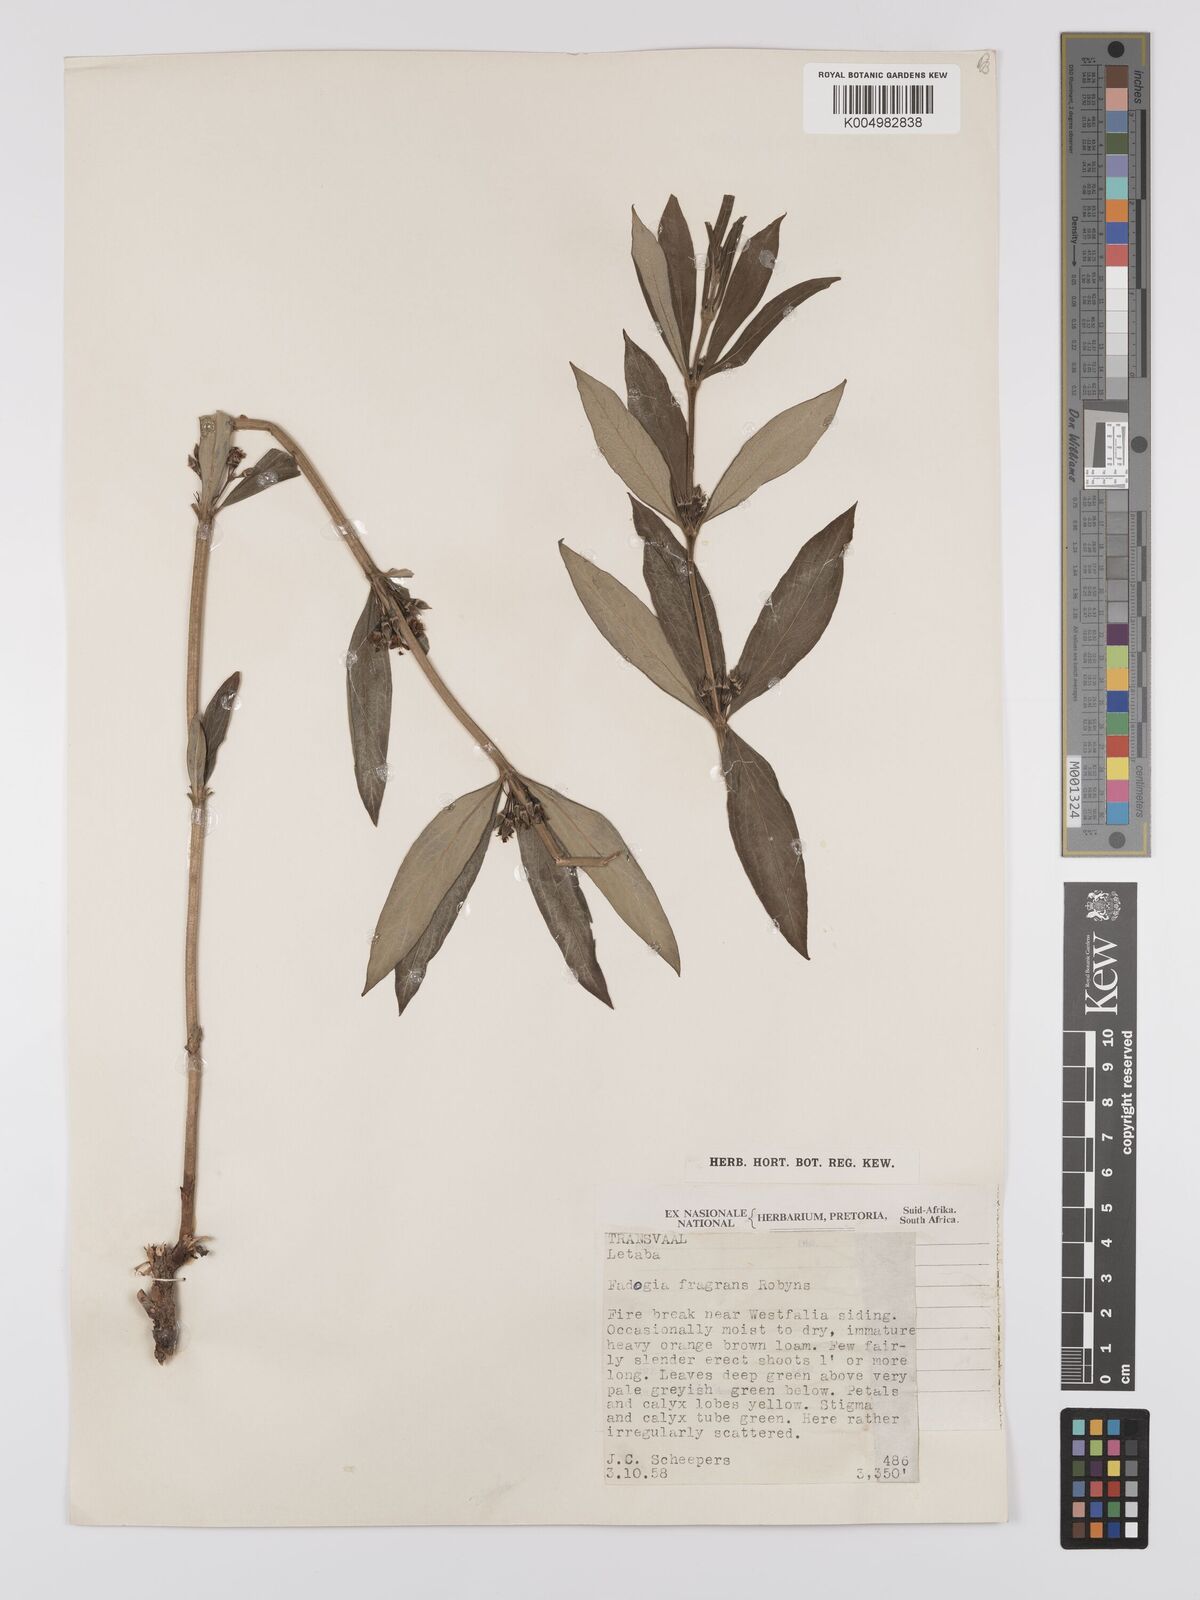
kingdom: Plantae
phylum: Tracheophyta
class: Magnoliopsida
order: Gentianales
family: Rubiaceae
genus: Fadogia
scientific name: Fadogia triphylla
